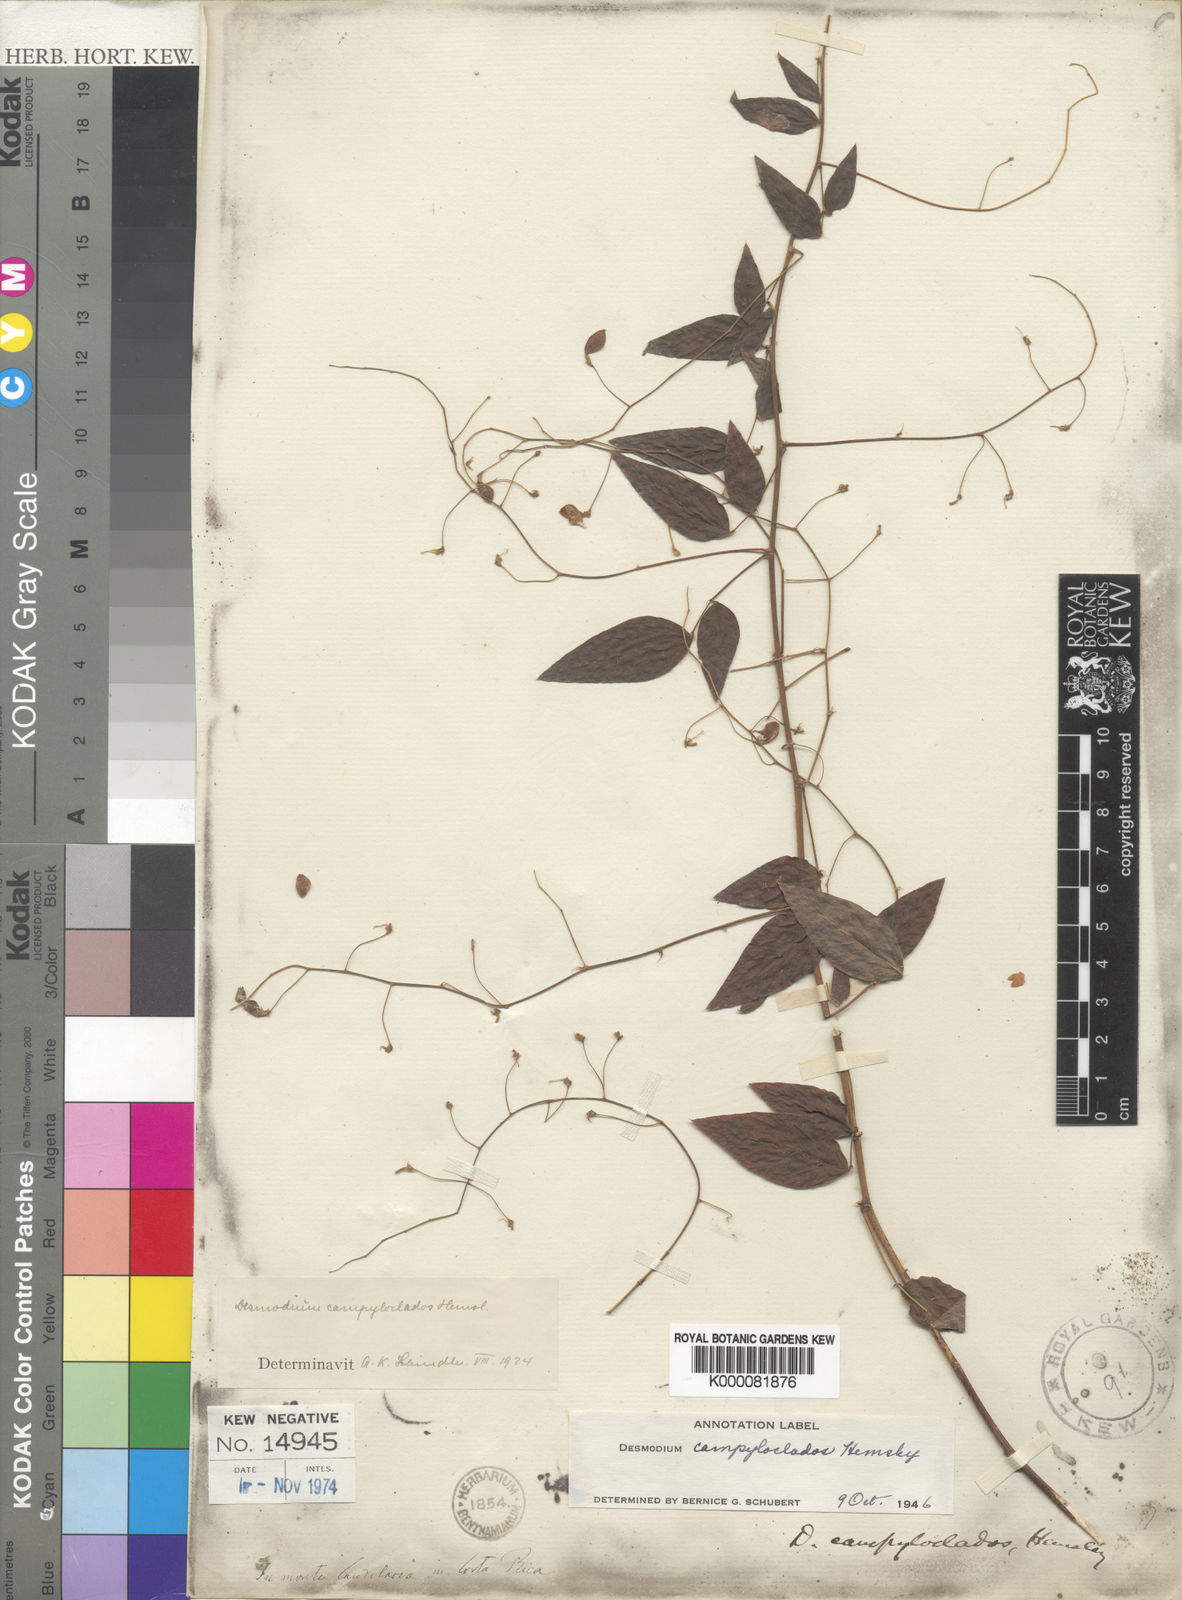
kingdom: Plantae
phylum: Tracheophyta
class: Magnoliopsida
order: Fabales
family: Fabaceae
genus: Desmodium
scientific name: Desmodium campyloclados
